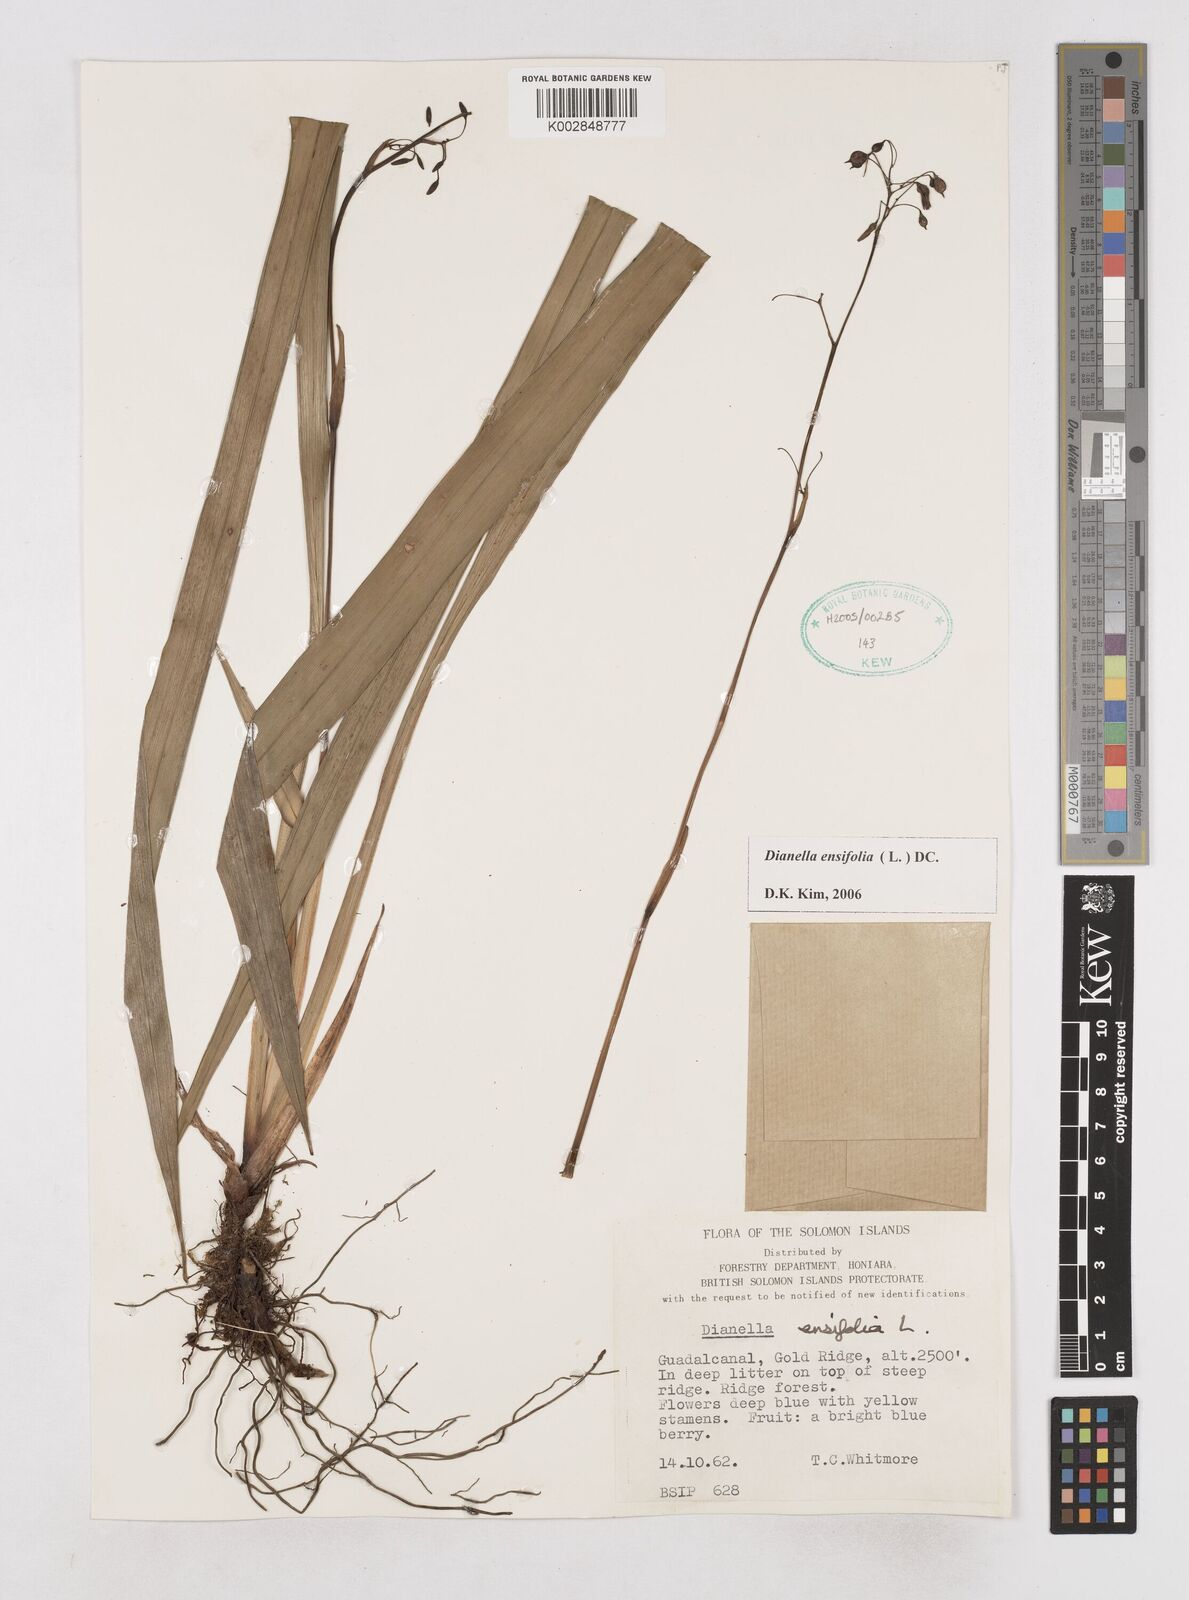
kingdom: Plantae
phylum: Tracheophyta
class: Liliopsida
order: Asparagales
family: Asphodelaceae
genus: Dianella
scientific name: Dianella ensifolia
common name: New zealand lilyplant
